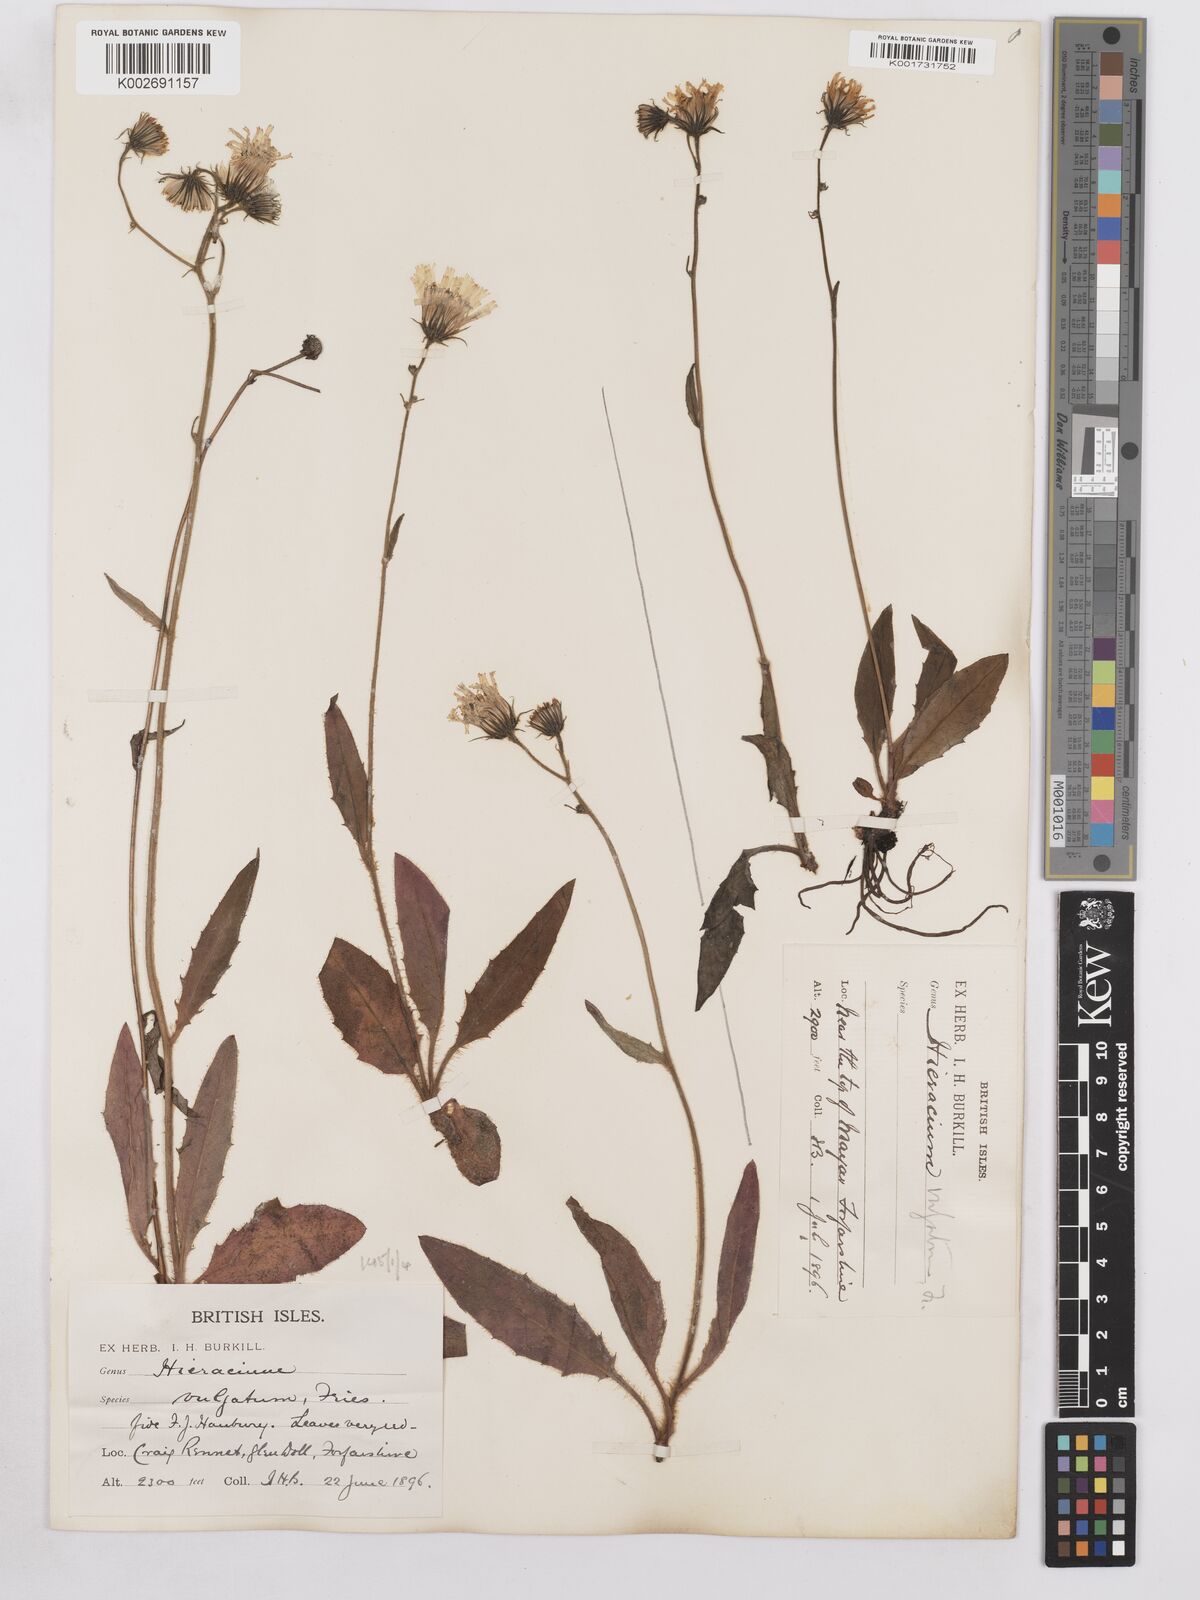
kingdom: Plantae
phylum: Tracheophyta
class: Magnoliopsida
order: Asterales
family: Asteraceae
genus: Hieracium
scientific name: Hieracium lachenalii
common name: Common hawkweed
